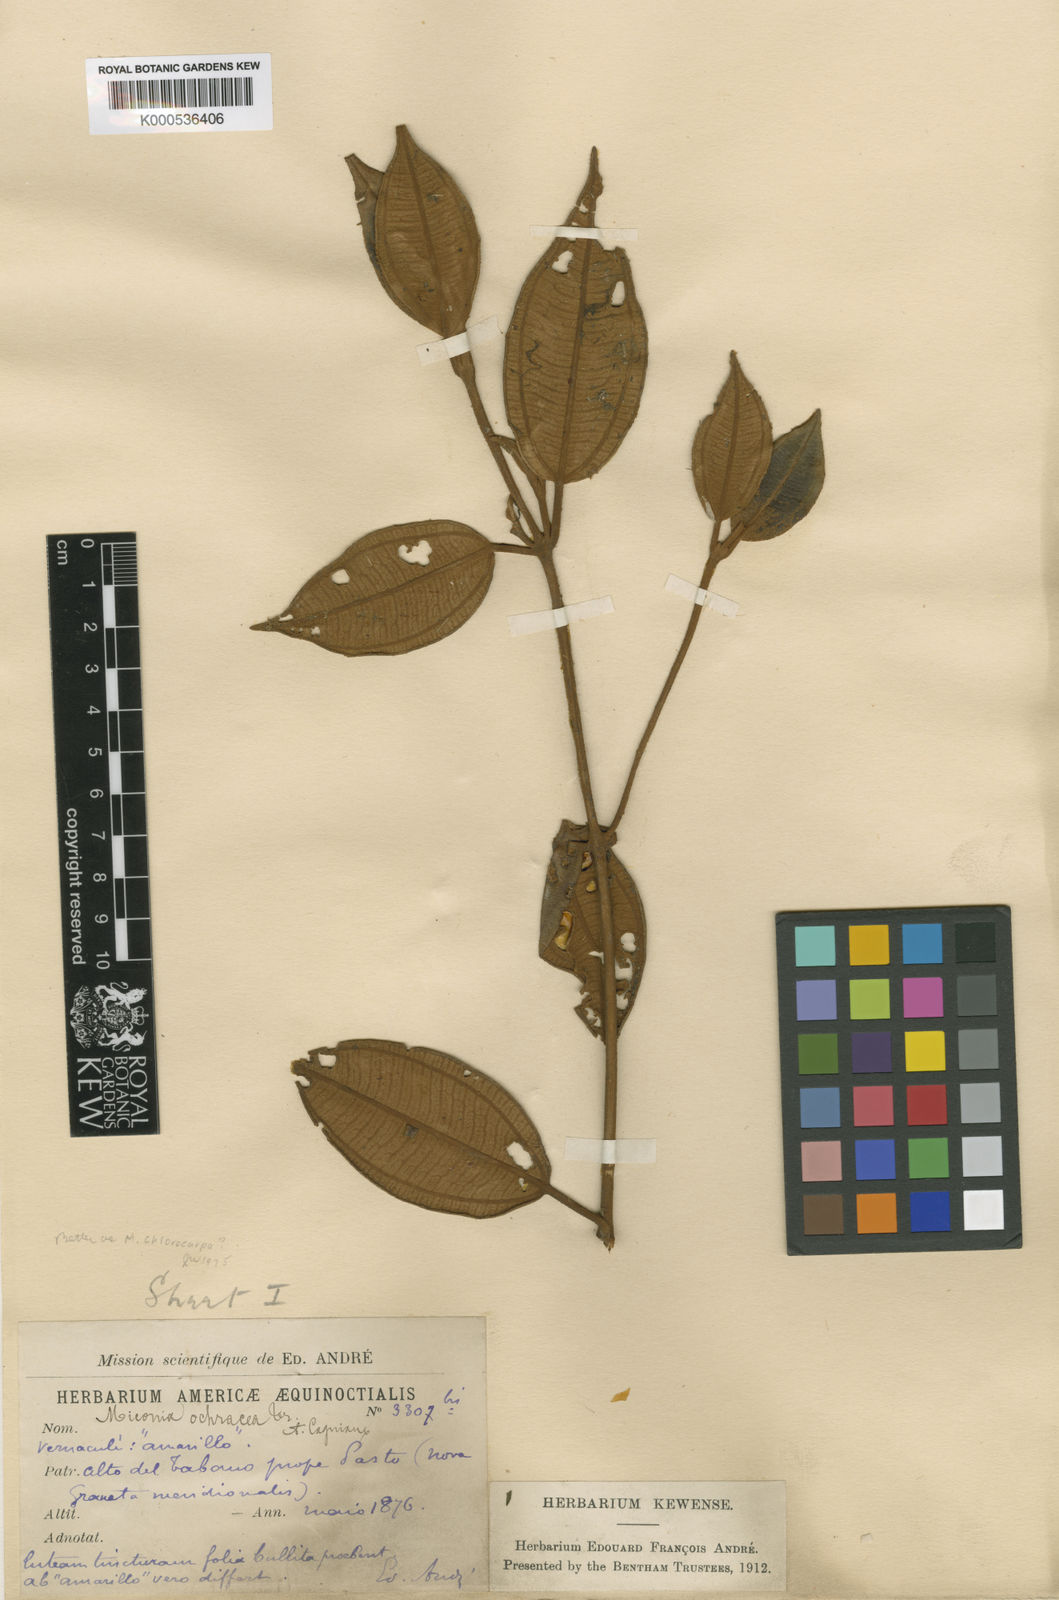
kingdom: Plantae
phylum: Tracheophyta
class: Magnoliopsida
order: Myrtales
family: Melastomataceae
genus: Miconia
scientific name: Miconia ochracea
